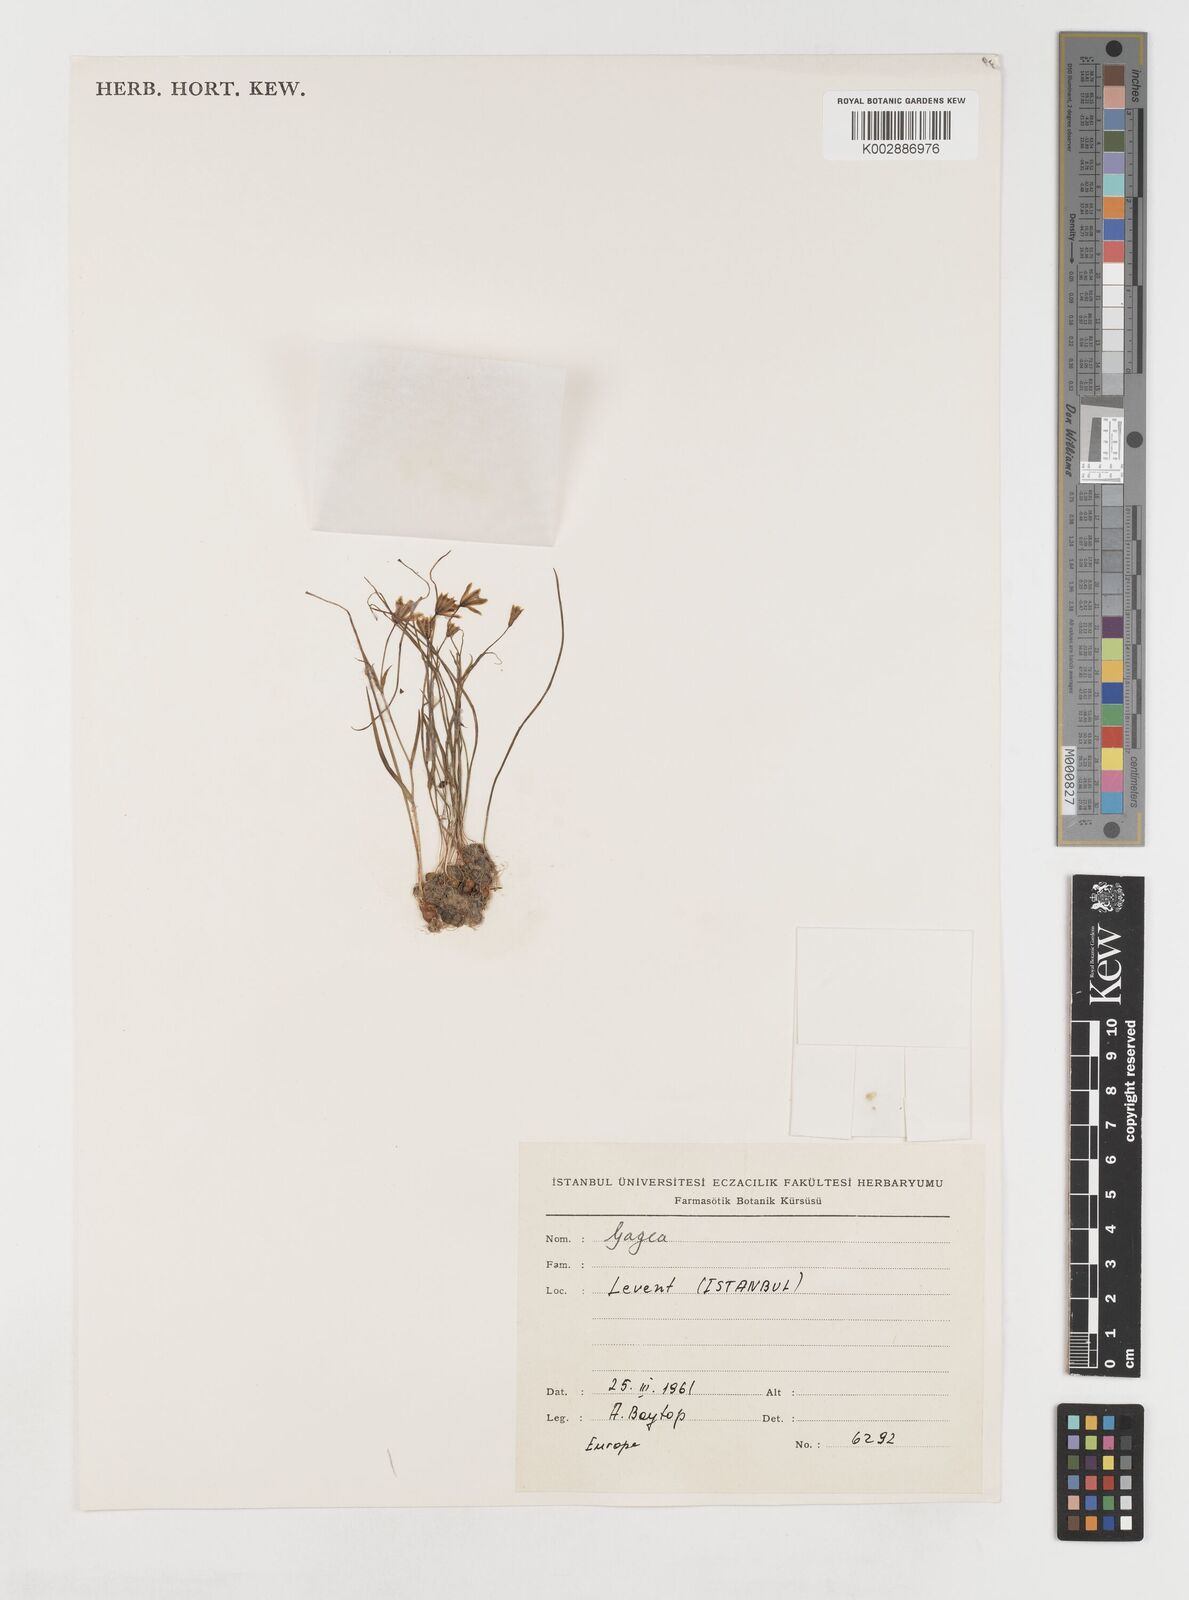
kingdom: Plantae
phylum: Tracheophyta
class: Liliopsida
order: Liliales
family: Liliaceae
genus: Gagea
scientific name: Gagea amblyopetala
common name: Blunt-flowered gagea
